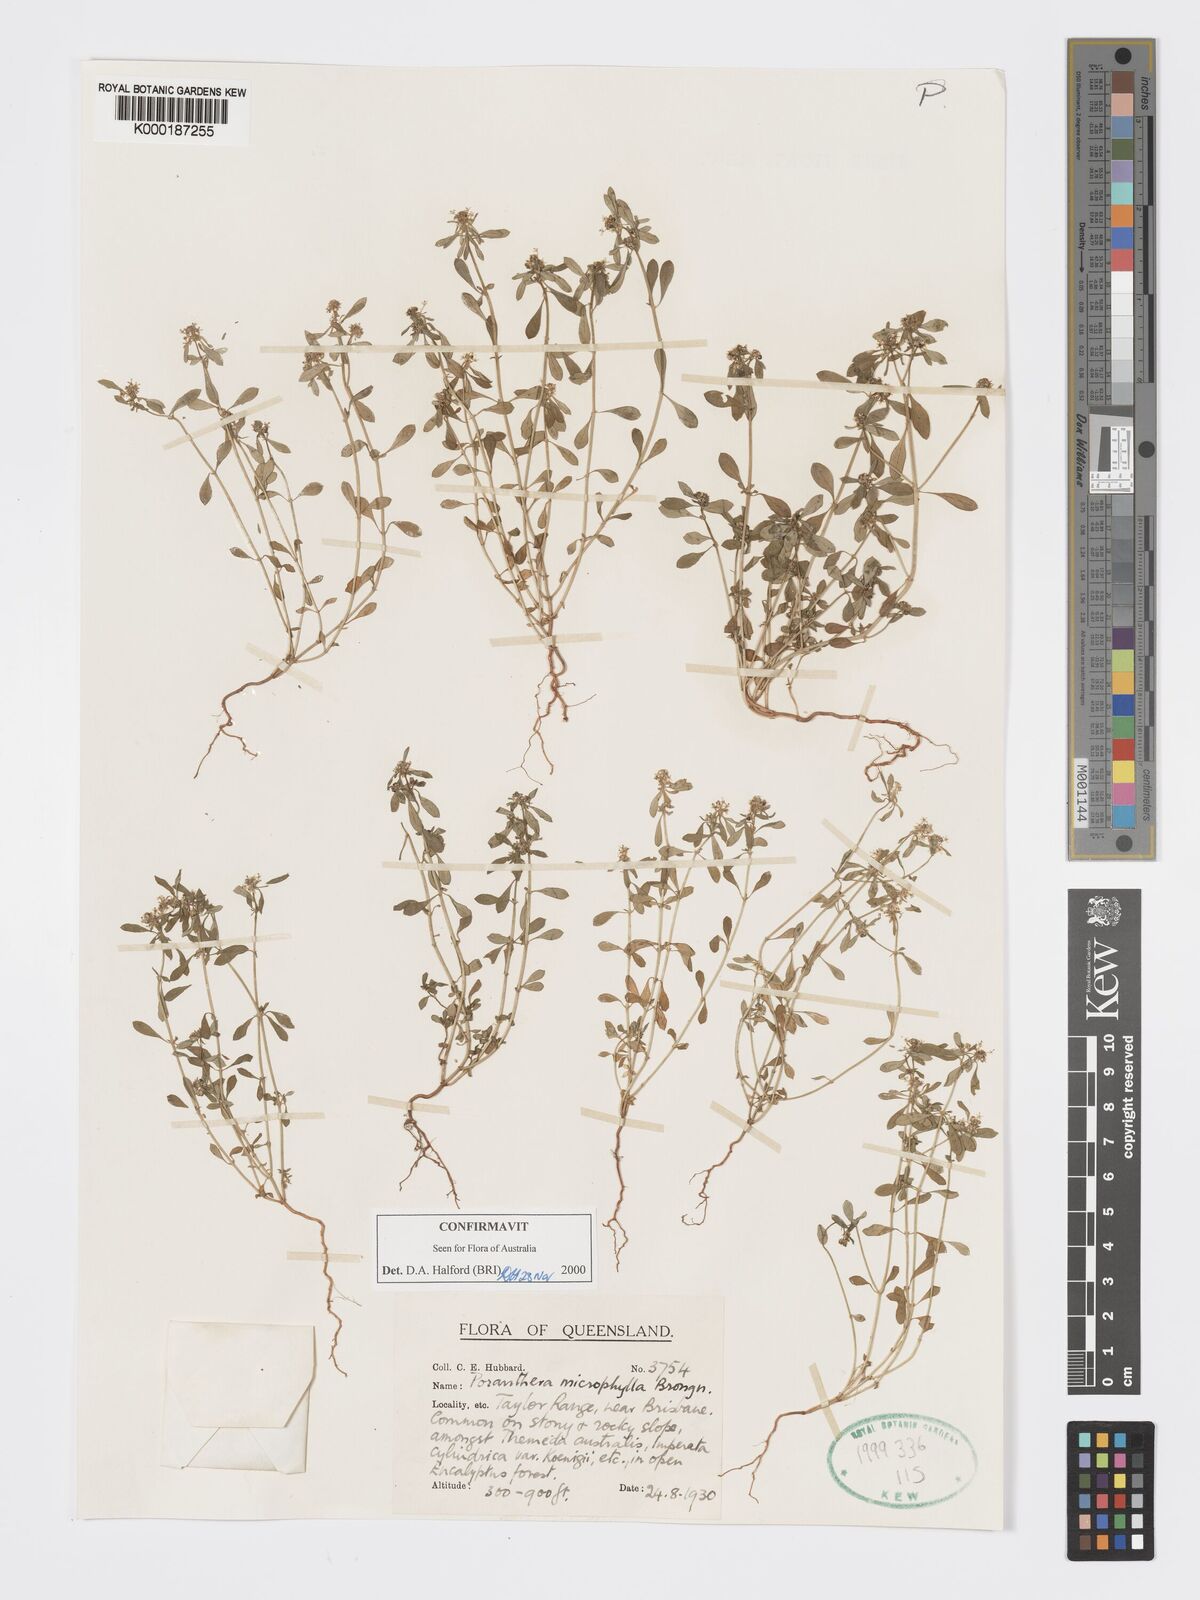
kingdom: Plantae
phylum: Tracheophyta
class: Magnoliopsida
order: Malpighiales
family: Phyllanthaceae
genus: Poranthera
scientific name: Poranthera microphylla
